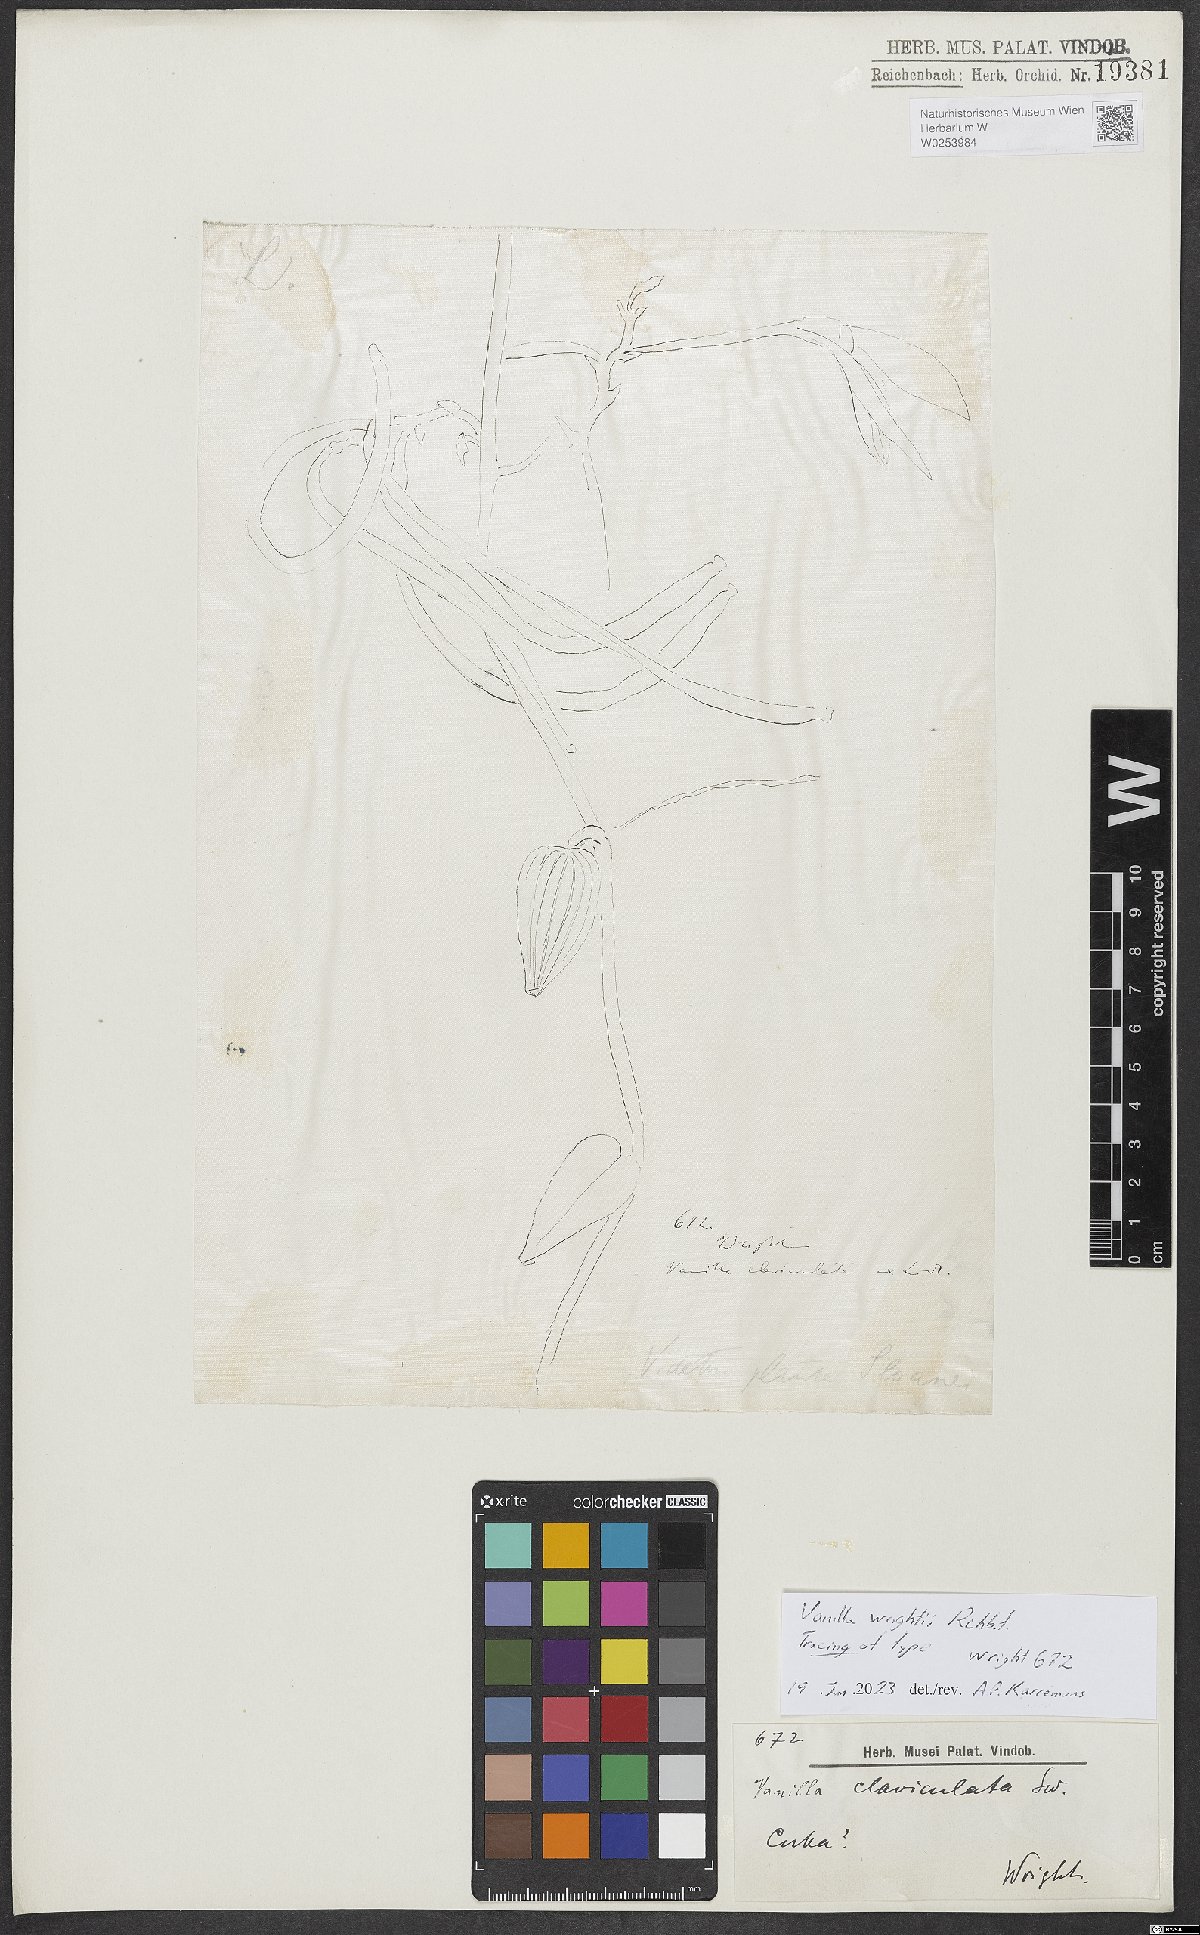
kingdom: Plantae
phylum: Tracheophyta
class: Liliopsida
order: Asparagales
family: Orchidaceae
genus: Vanilla
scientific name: Vanilla
